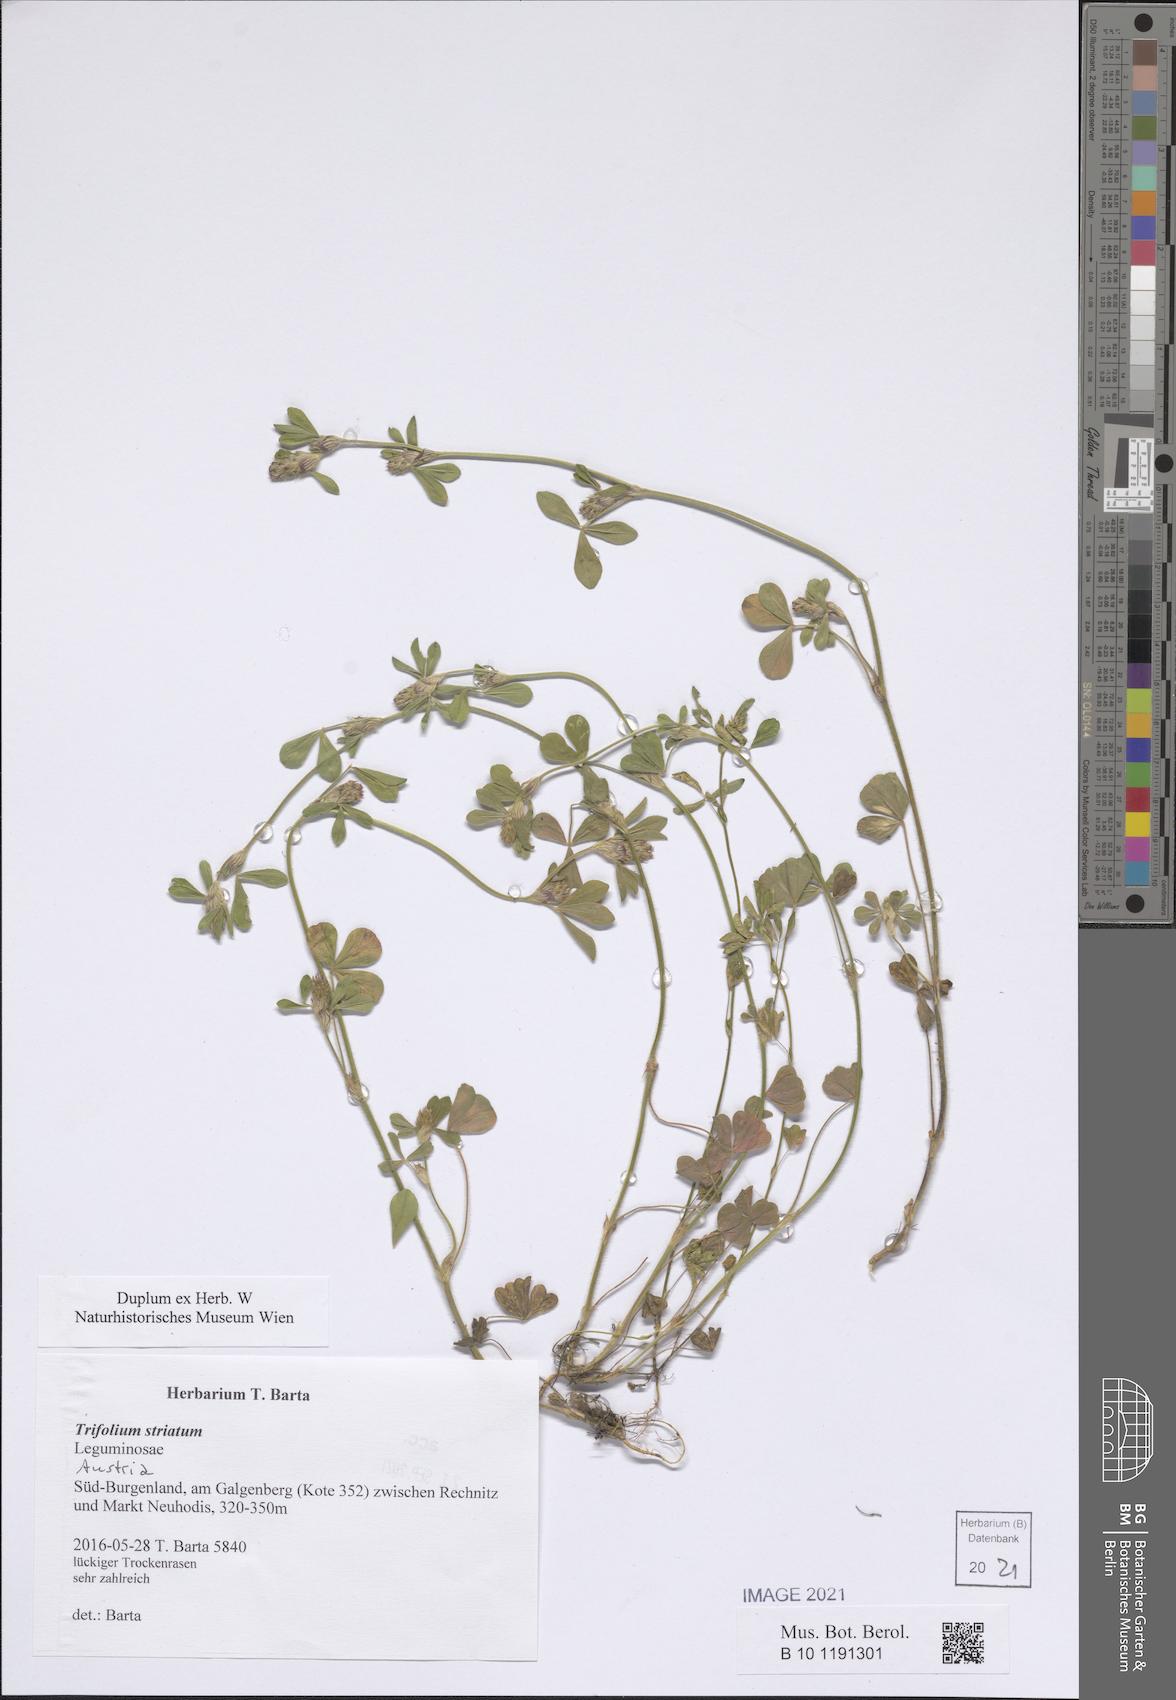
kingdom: Plantae
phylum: Tracheophyta
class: Magnoliopsida
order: Fabales
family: Fabaceae
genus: Trifolium
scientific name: Trifolium striatum
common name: Knotted clover
